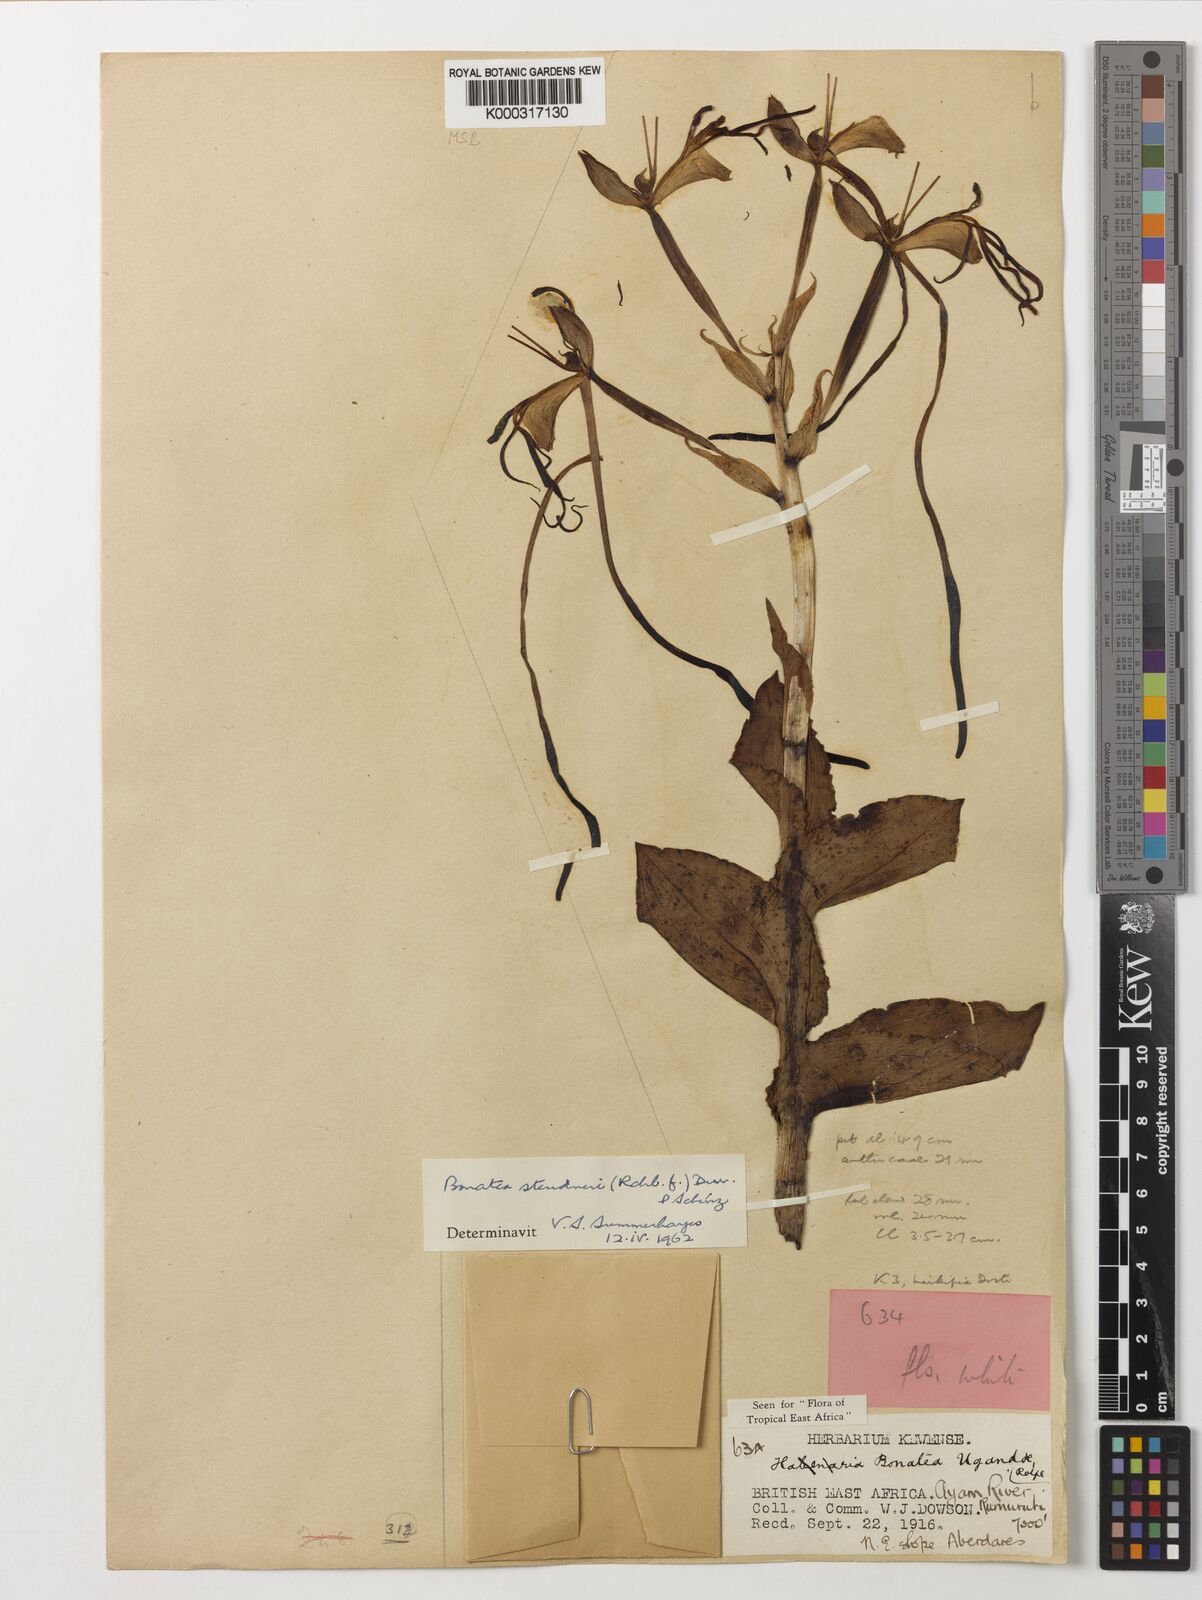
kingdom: Plantae
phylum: Tracheophyta
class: Liliopsida
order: Asparagales
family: Orchidaceae
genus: Bonatea
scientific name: Bonatea steudneri
